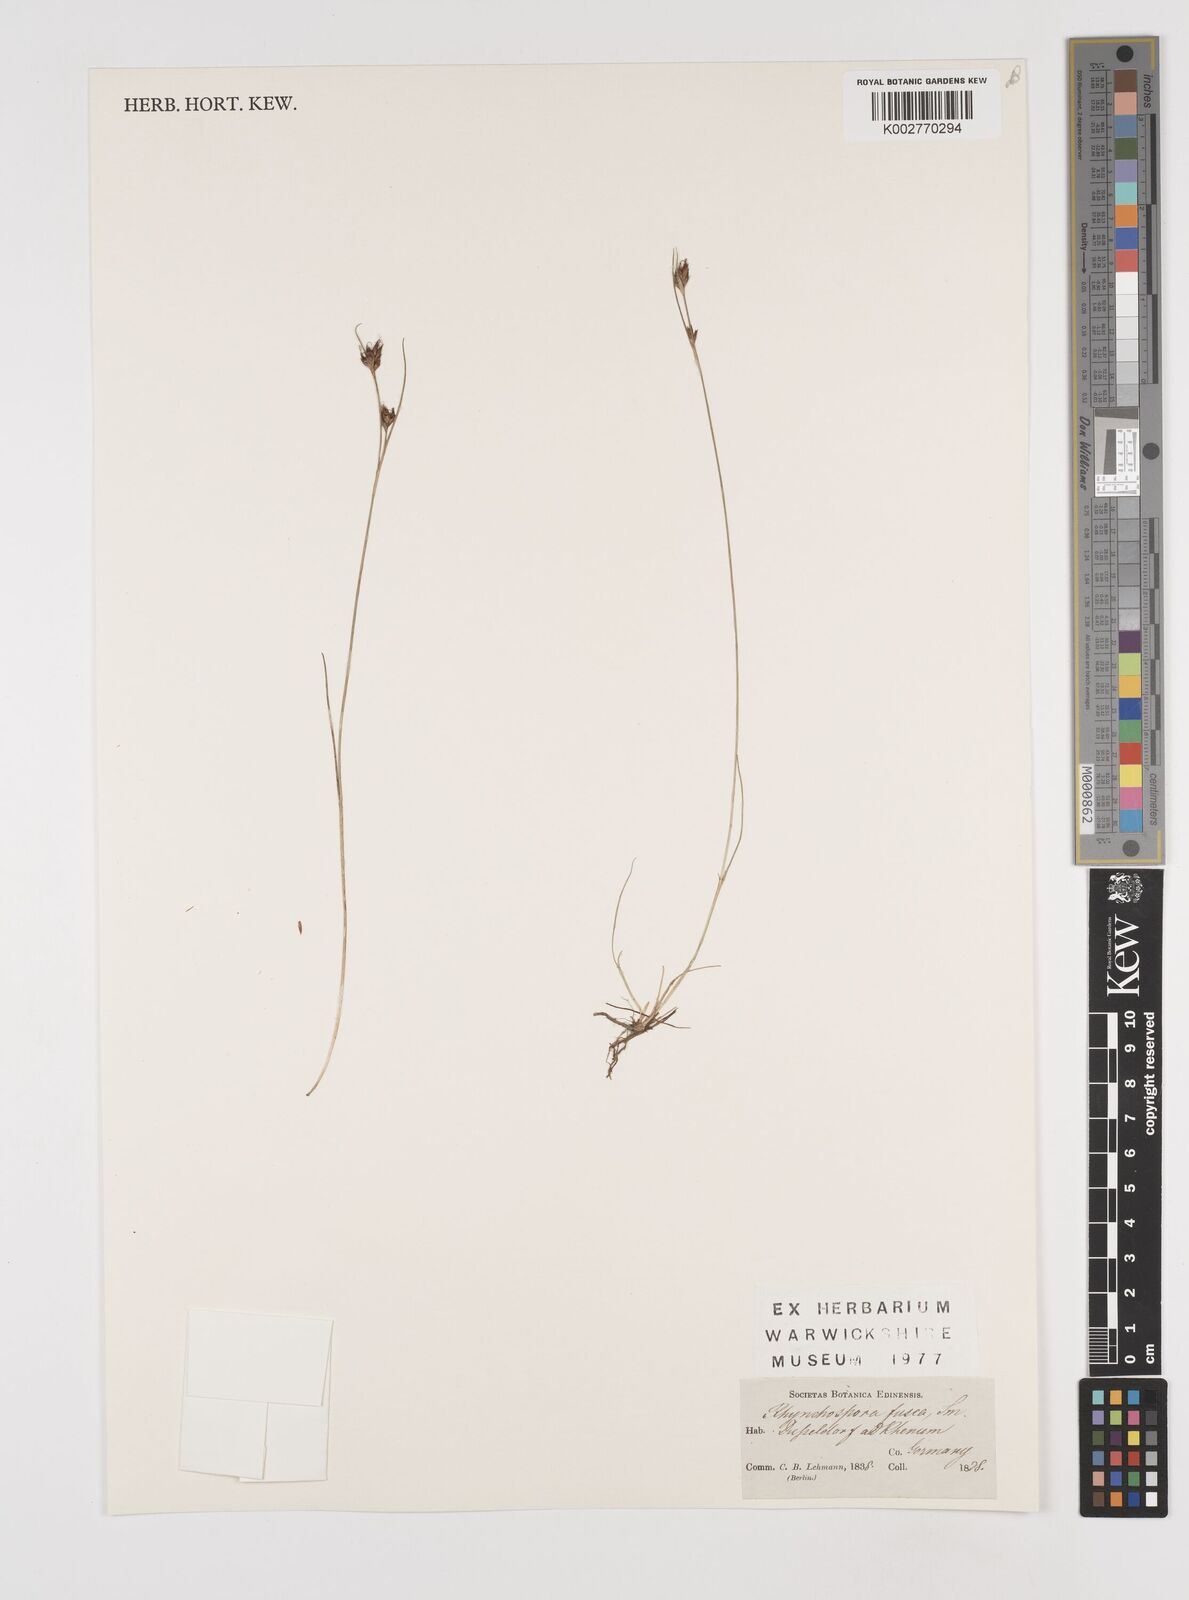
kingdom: Plantae
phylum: Tracheophyta
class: Liliopsida
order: Poales
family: Cyperaceae
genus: Rhynchospora
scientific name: Rhynchospora fusca
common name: Brown beak-sedge
